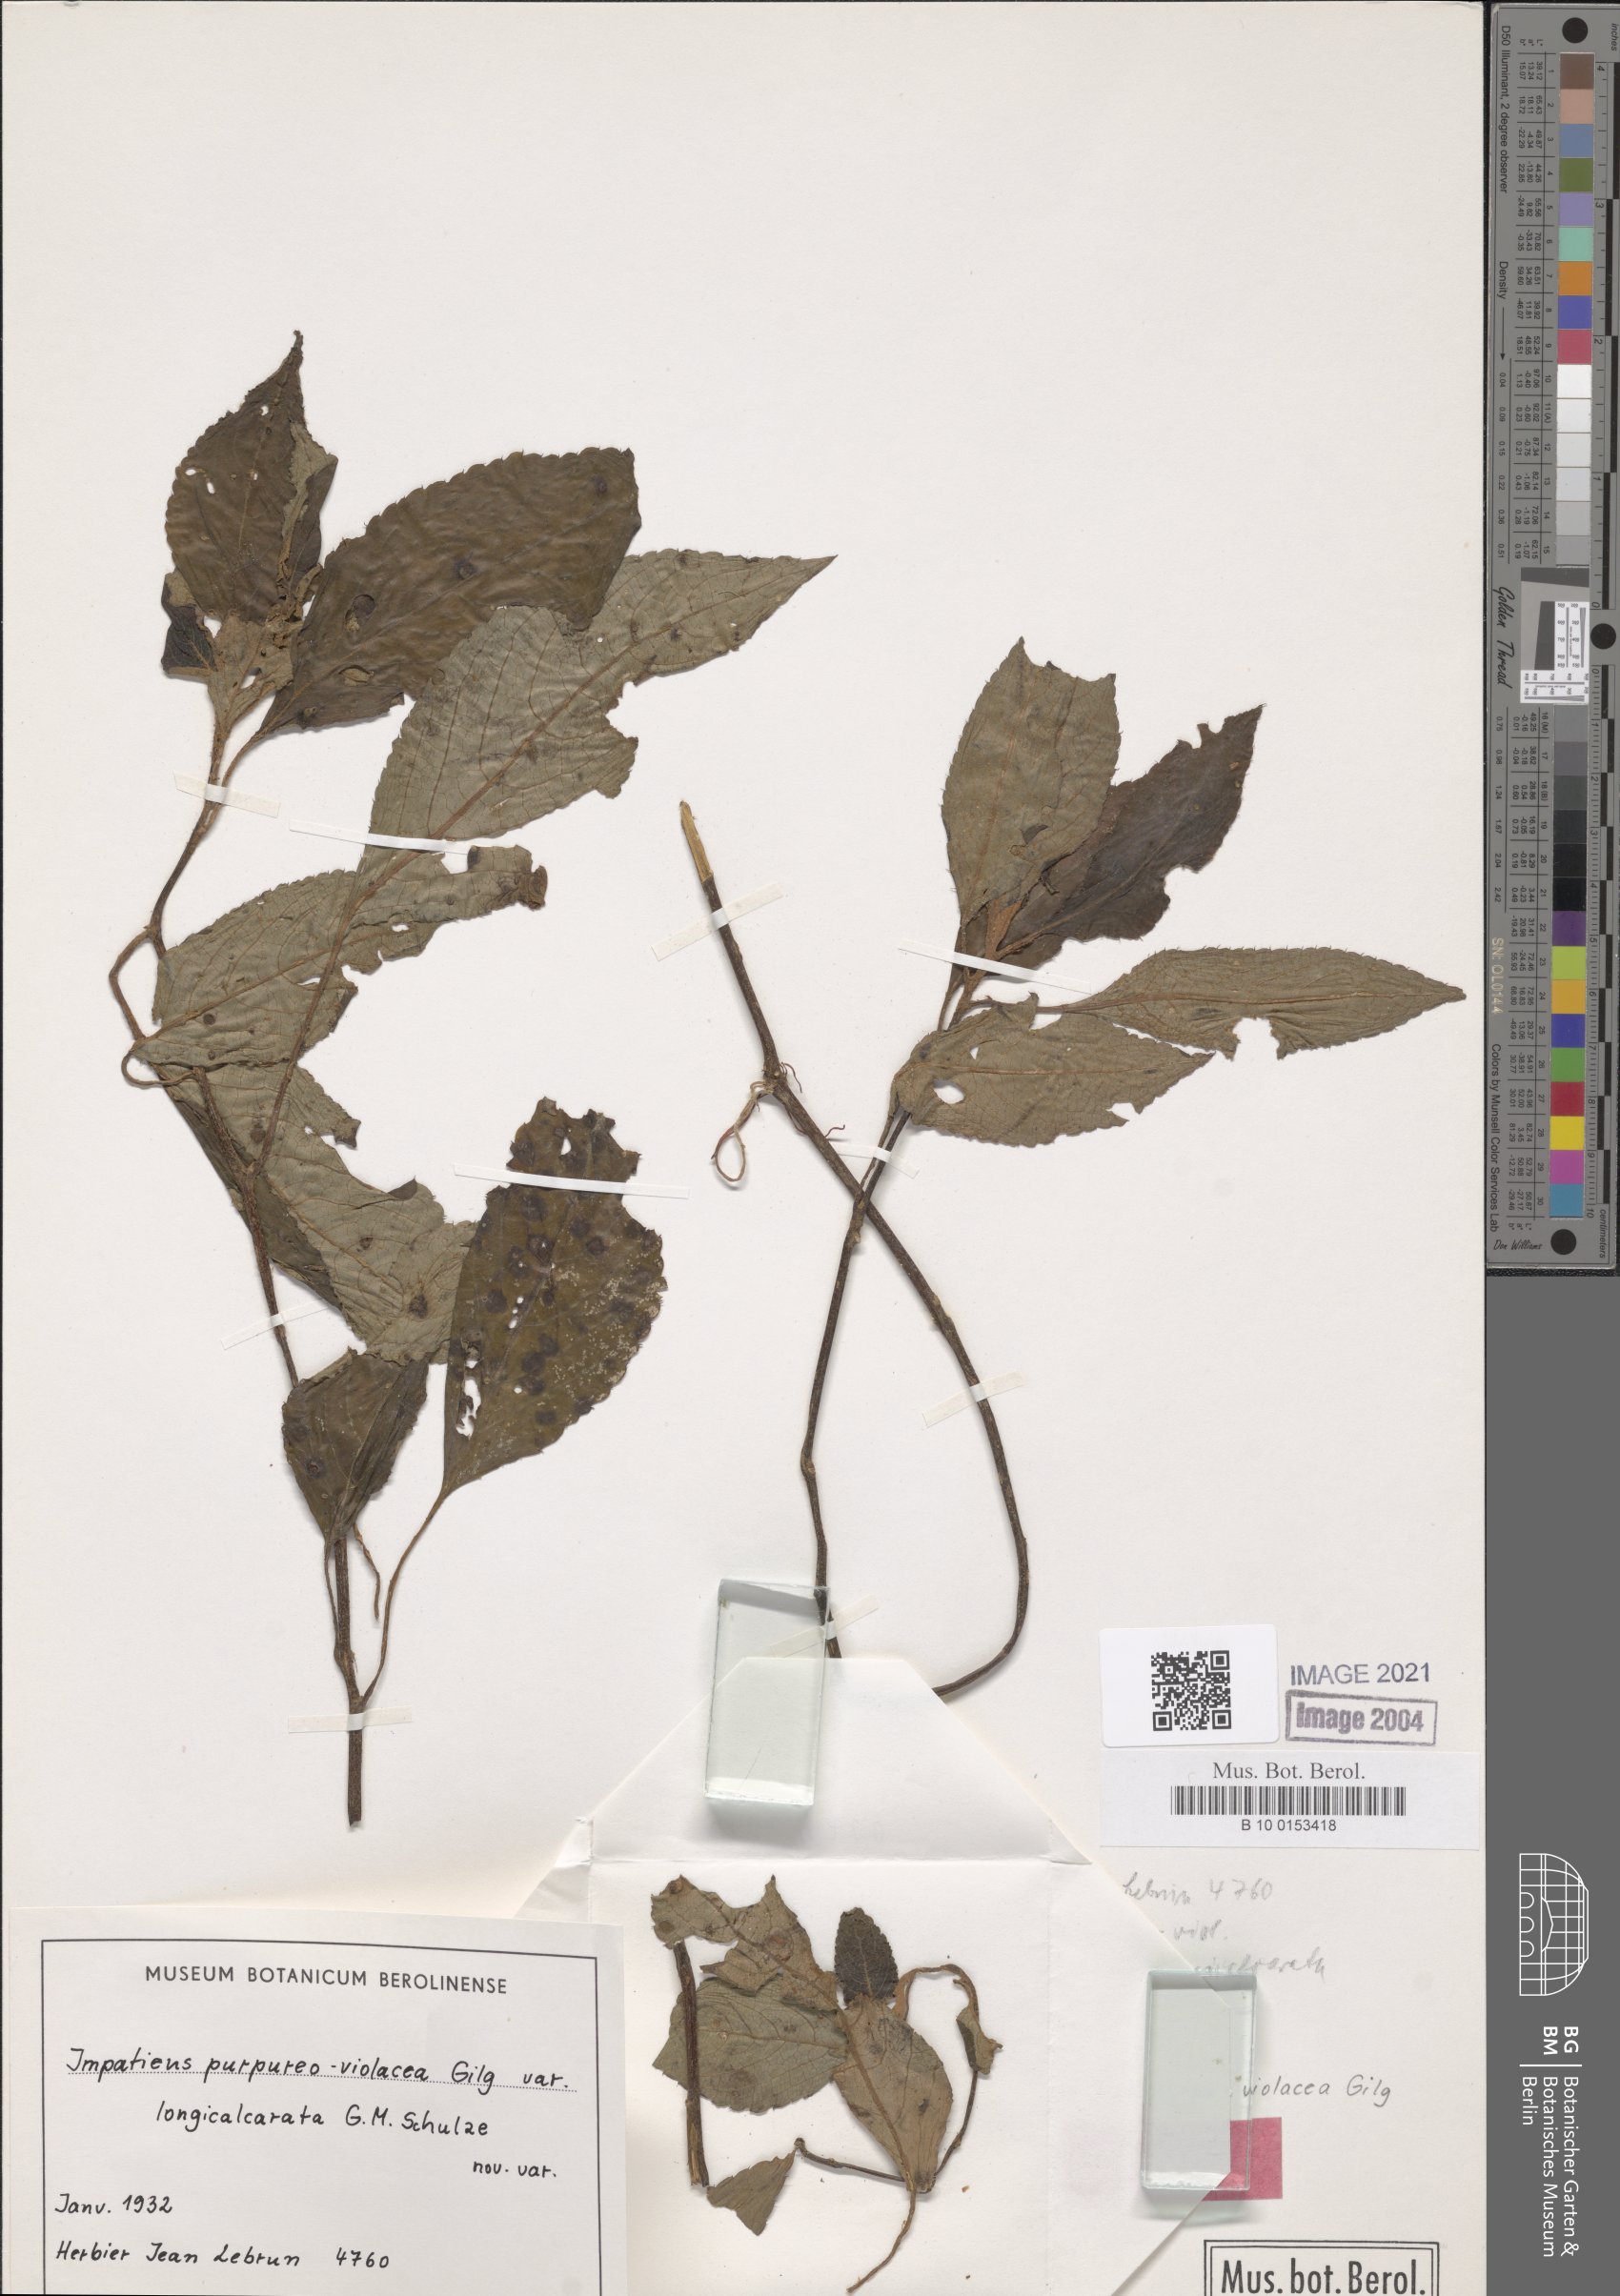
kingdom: Plantae
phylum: Tracheophyta
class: Magnoliopsida
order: Ericales
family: Balsaminaceae
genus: Impatiens
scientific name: Impatiens purpureoviolacea
